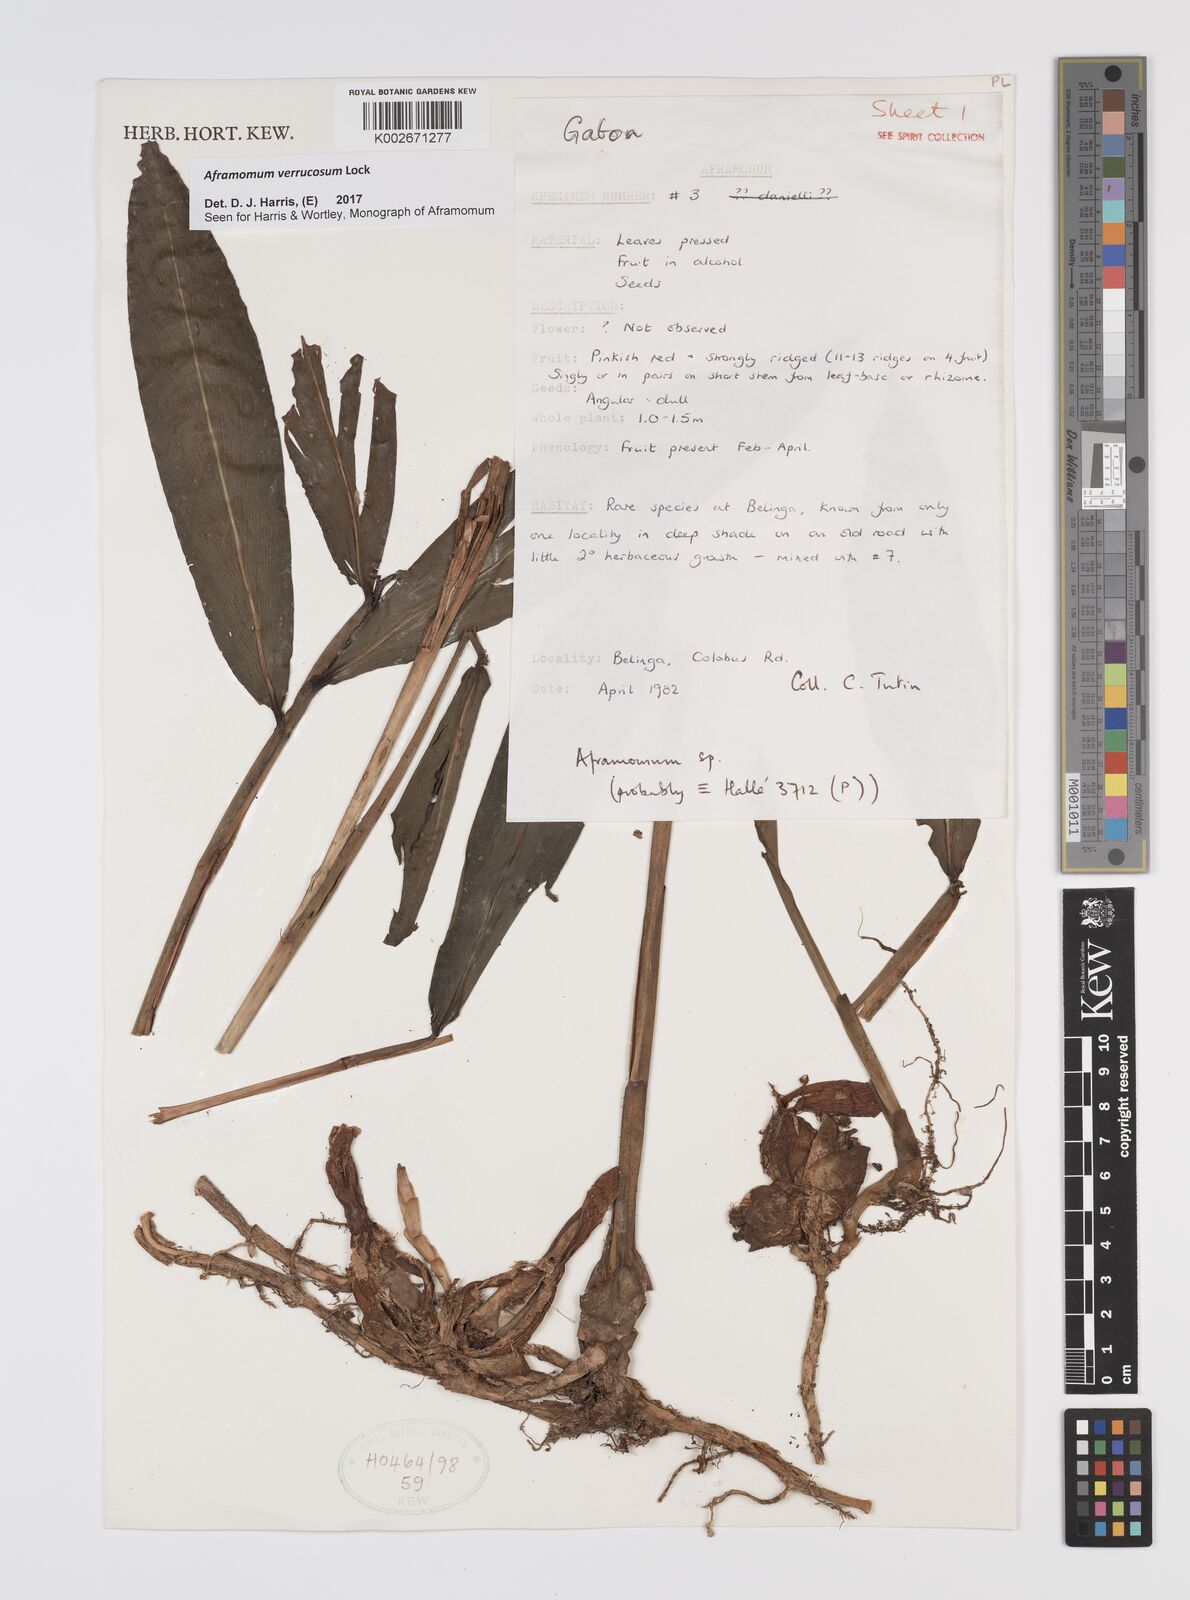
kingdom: Plantae
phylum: Tracheophyta
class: Liliopsida
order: Zingiberales
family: Zingiberaceae
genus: Aframomum
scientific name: Aframomum verrucosum
